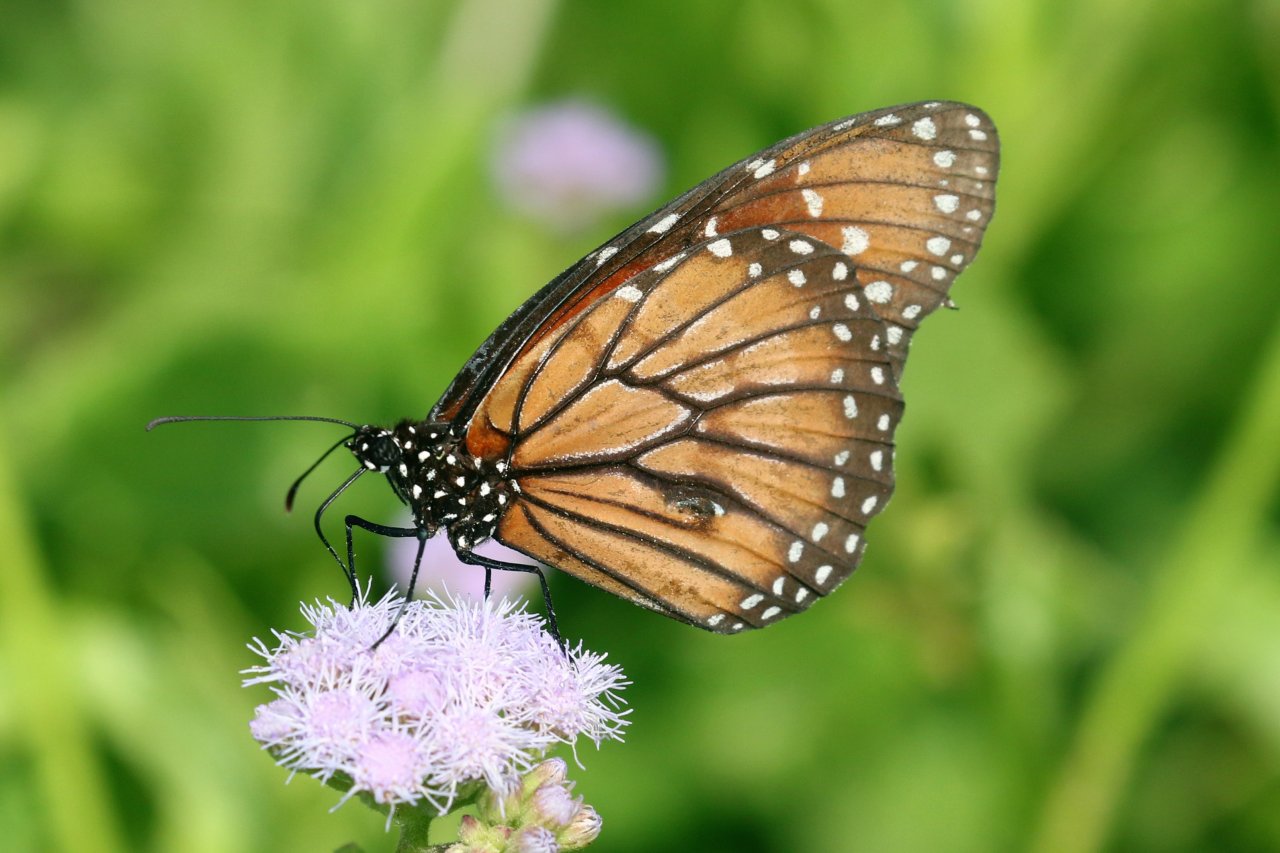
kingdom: Animalia
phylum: Arthropoda
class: Insecta
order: Lepidoptera
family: Nymphalidae
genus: Danaus
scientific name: Danaus eresimus
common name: Soldier
